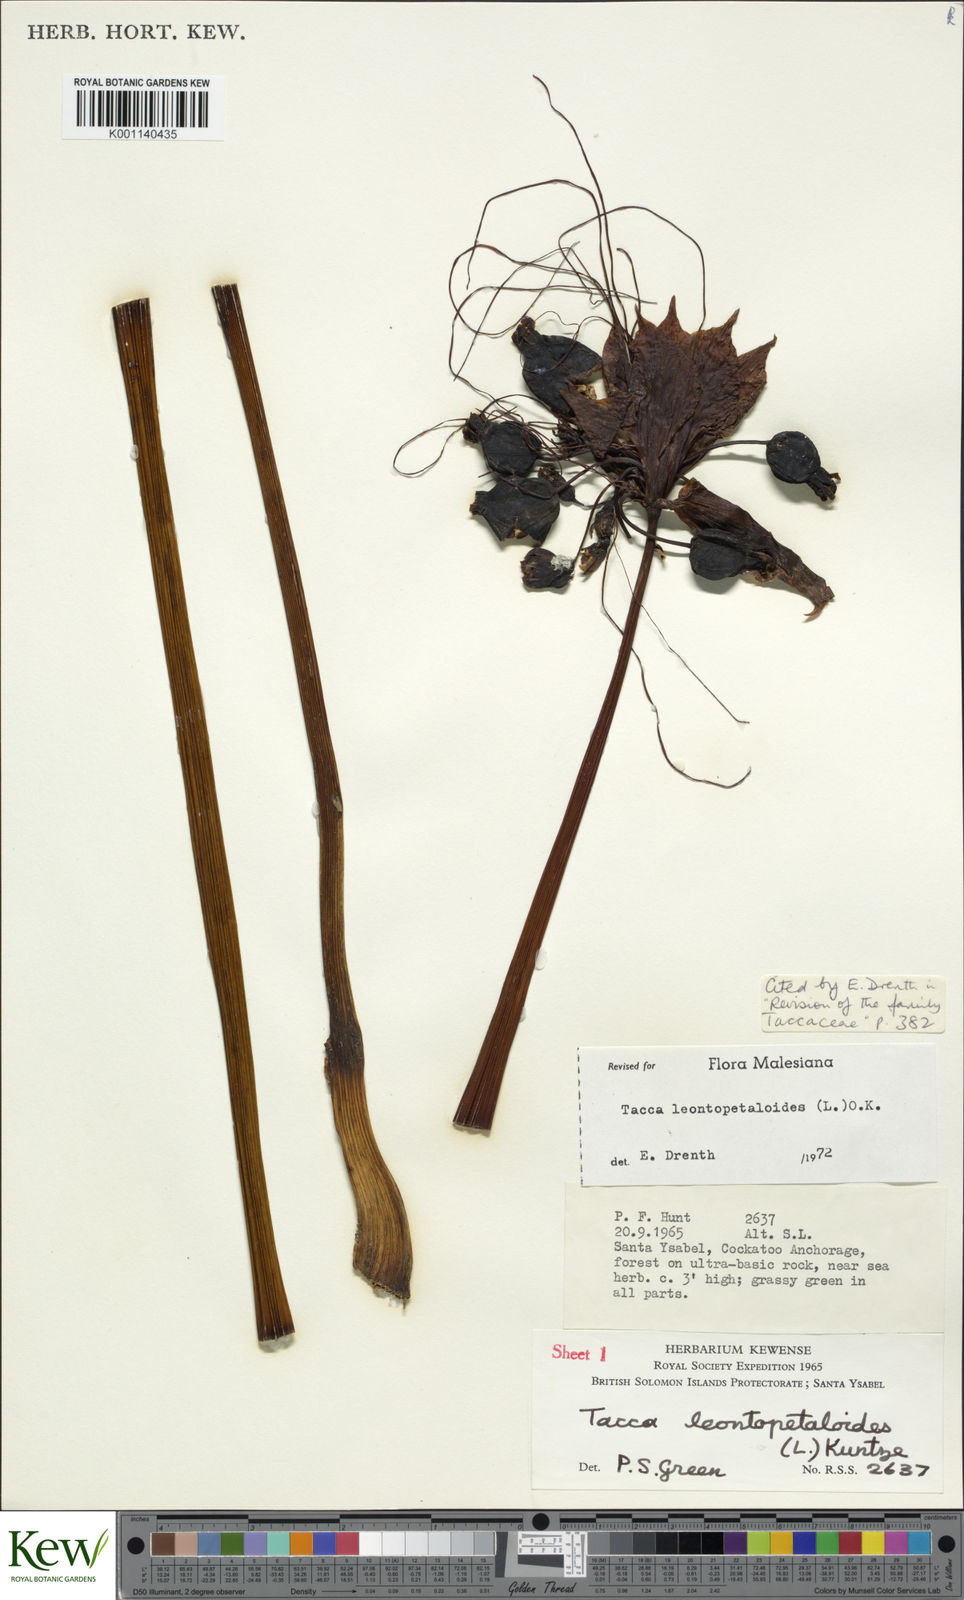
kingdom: Plantae
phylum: Tracheophyta
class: Liliopsida
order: Dioscoreales
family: Dioscoreaceae
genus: Tacca
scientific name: Tacca leontopetaloides
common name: Arrowroot
